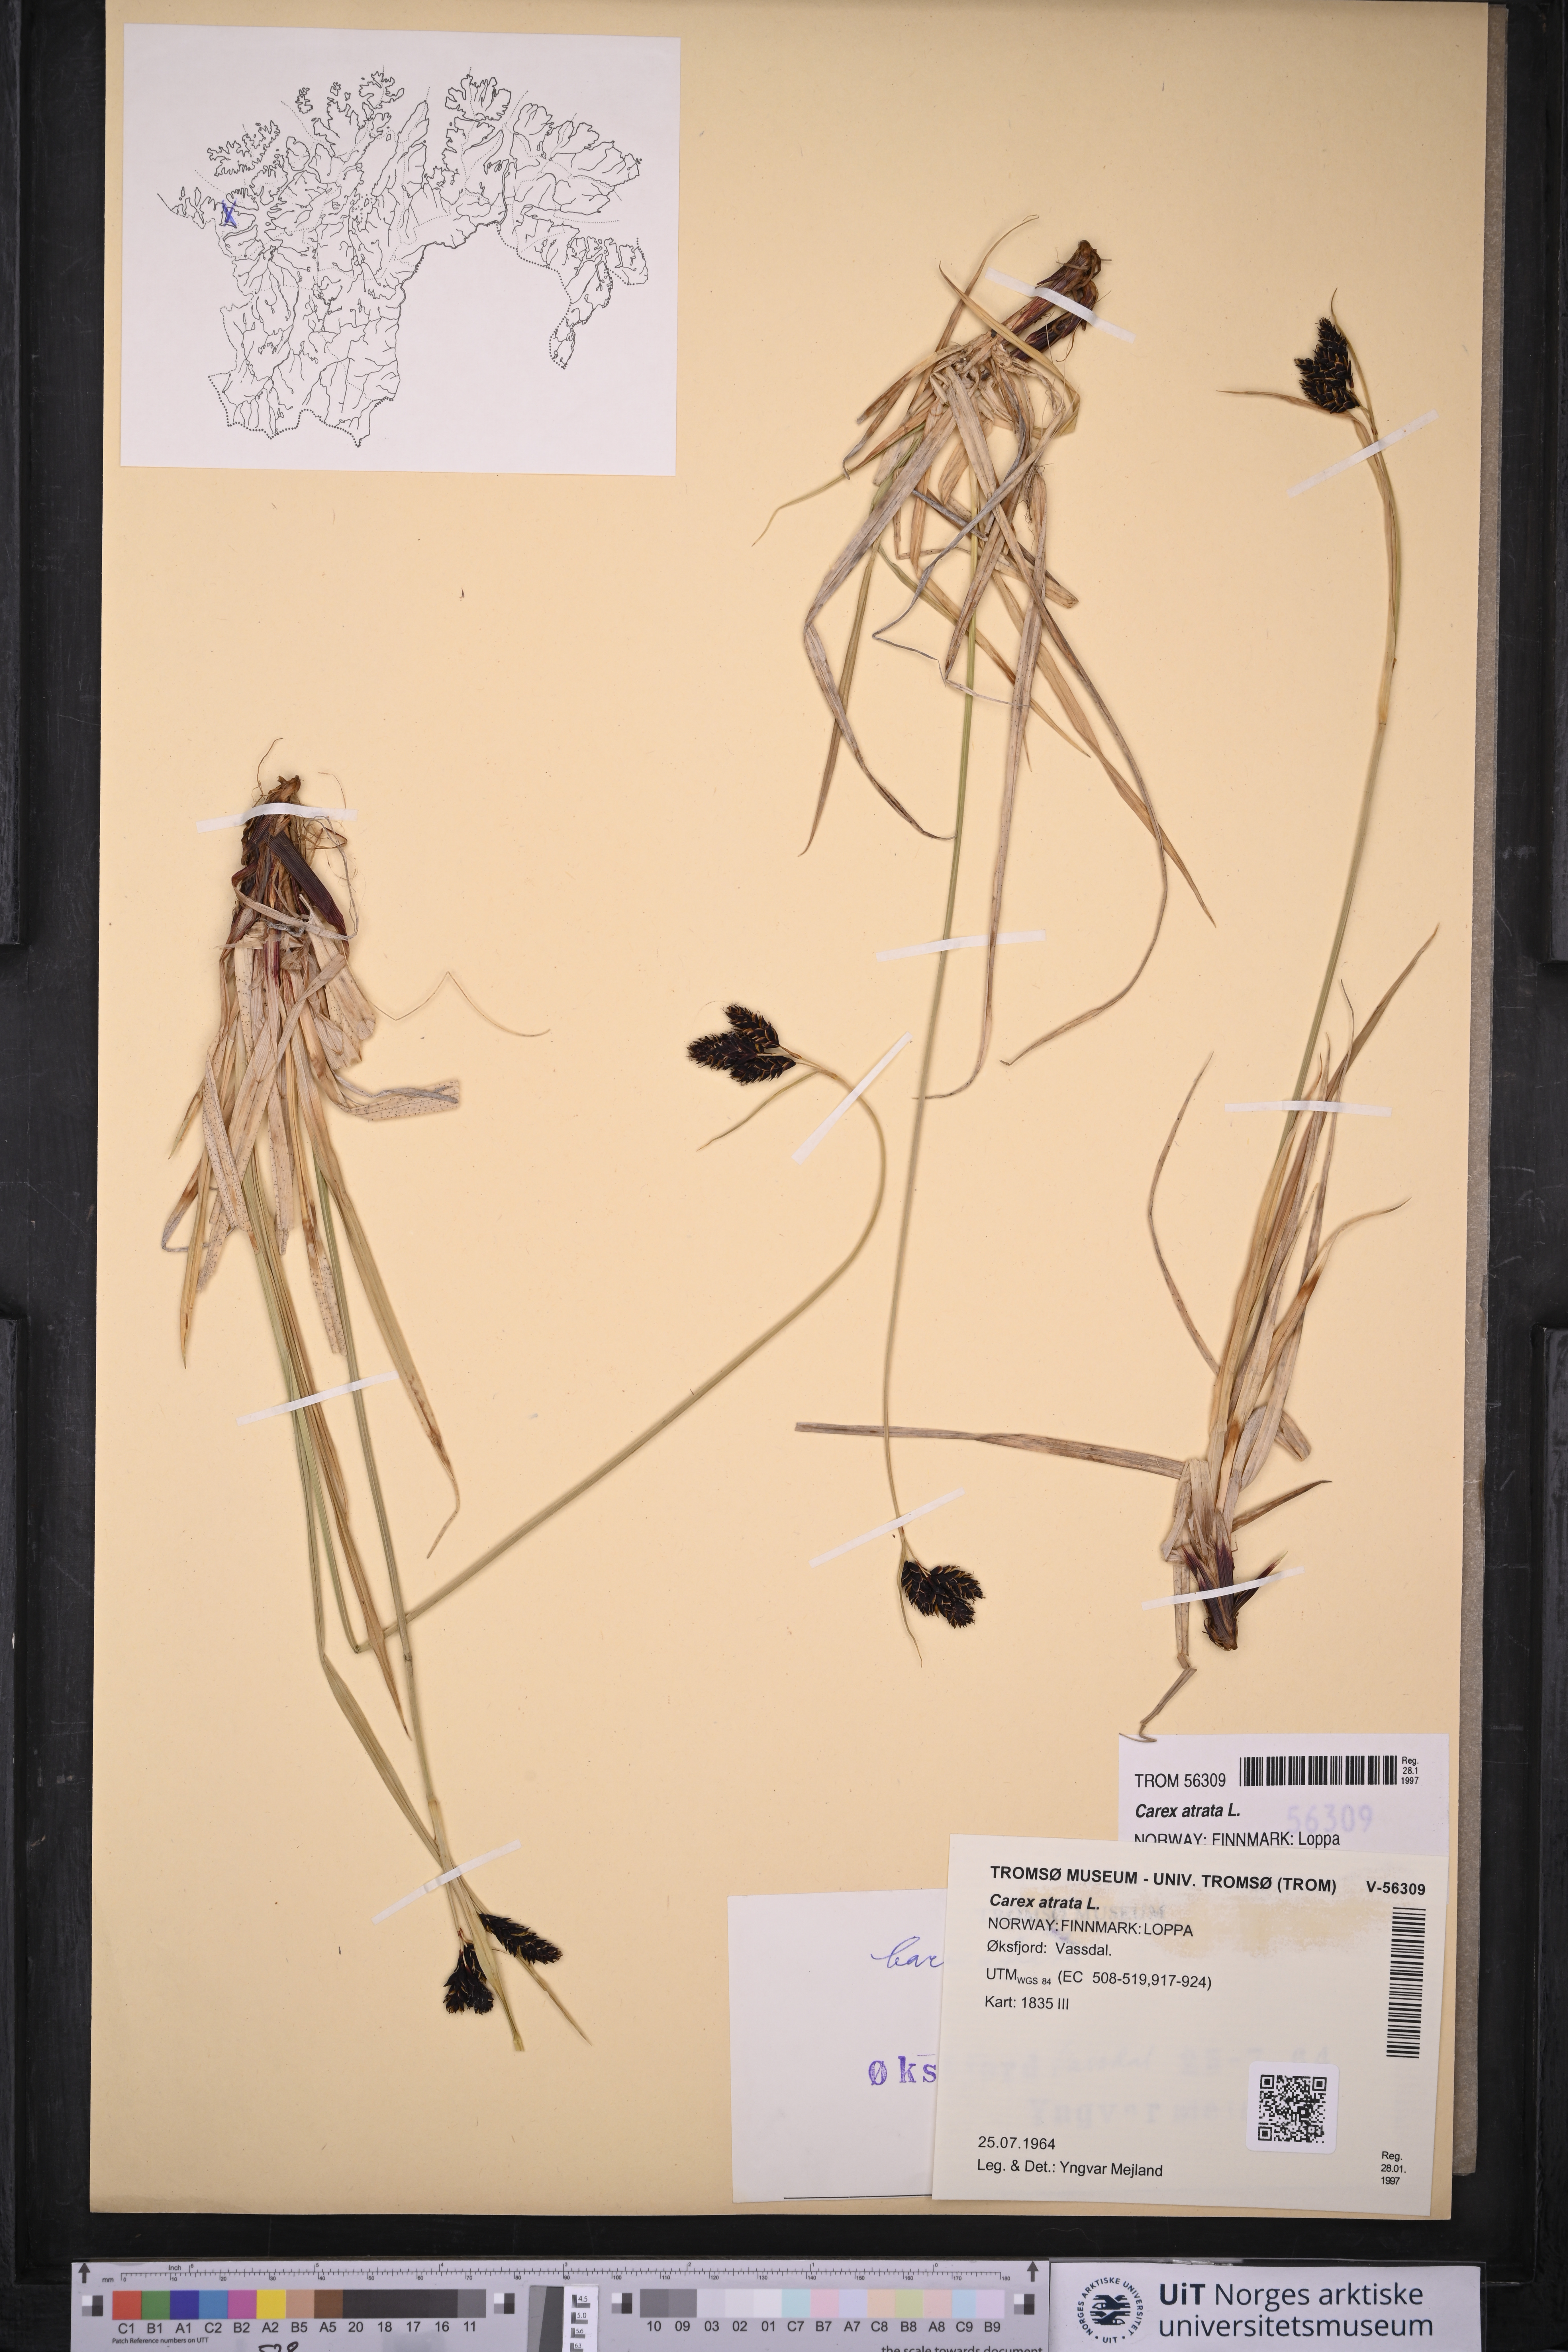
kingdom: Plantae
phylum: Tracheophyta
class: Liliopsida
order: Poales
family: Cyperaceae
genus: Carex
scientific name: Carex atrata
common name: Black alpine sedge
